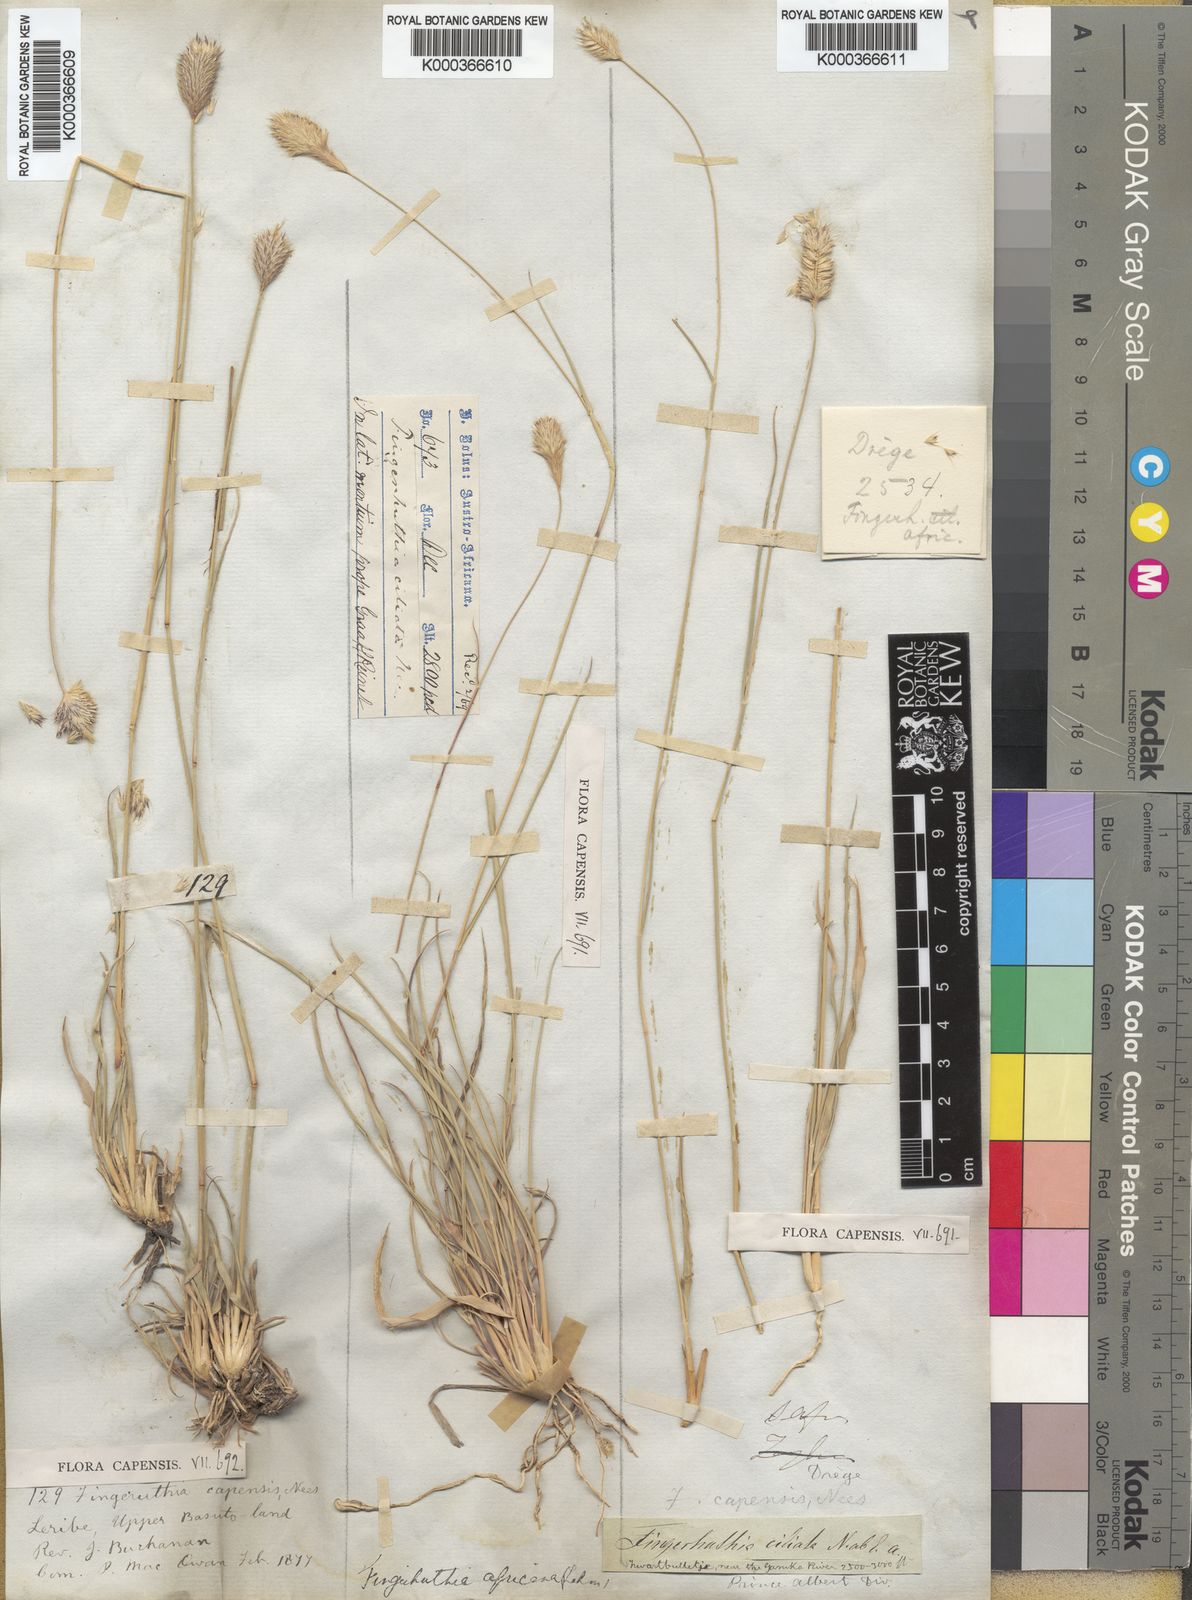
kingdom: Plantae
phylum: Tracheophyta
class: Liliopsida
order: Poales
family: Poaceae
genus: Fingerhuthia
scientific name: Fingerhuthia africana
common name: Zulu fescue
